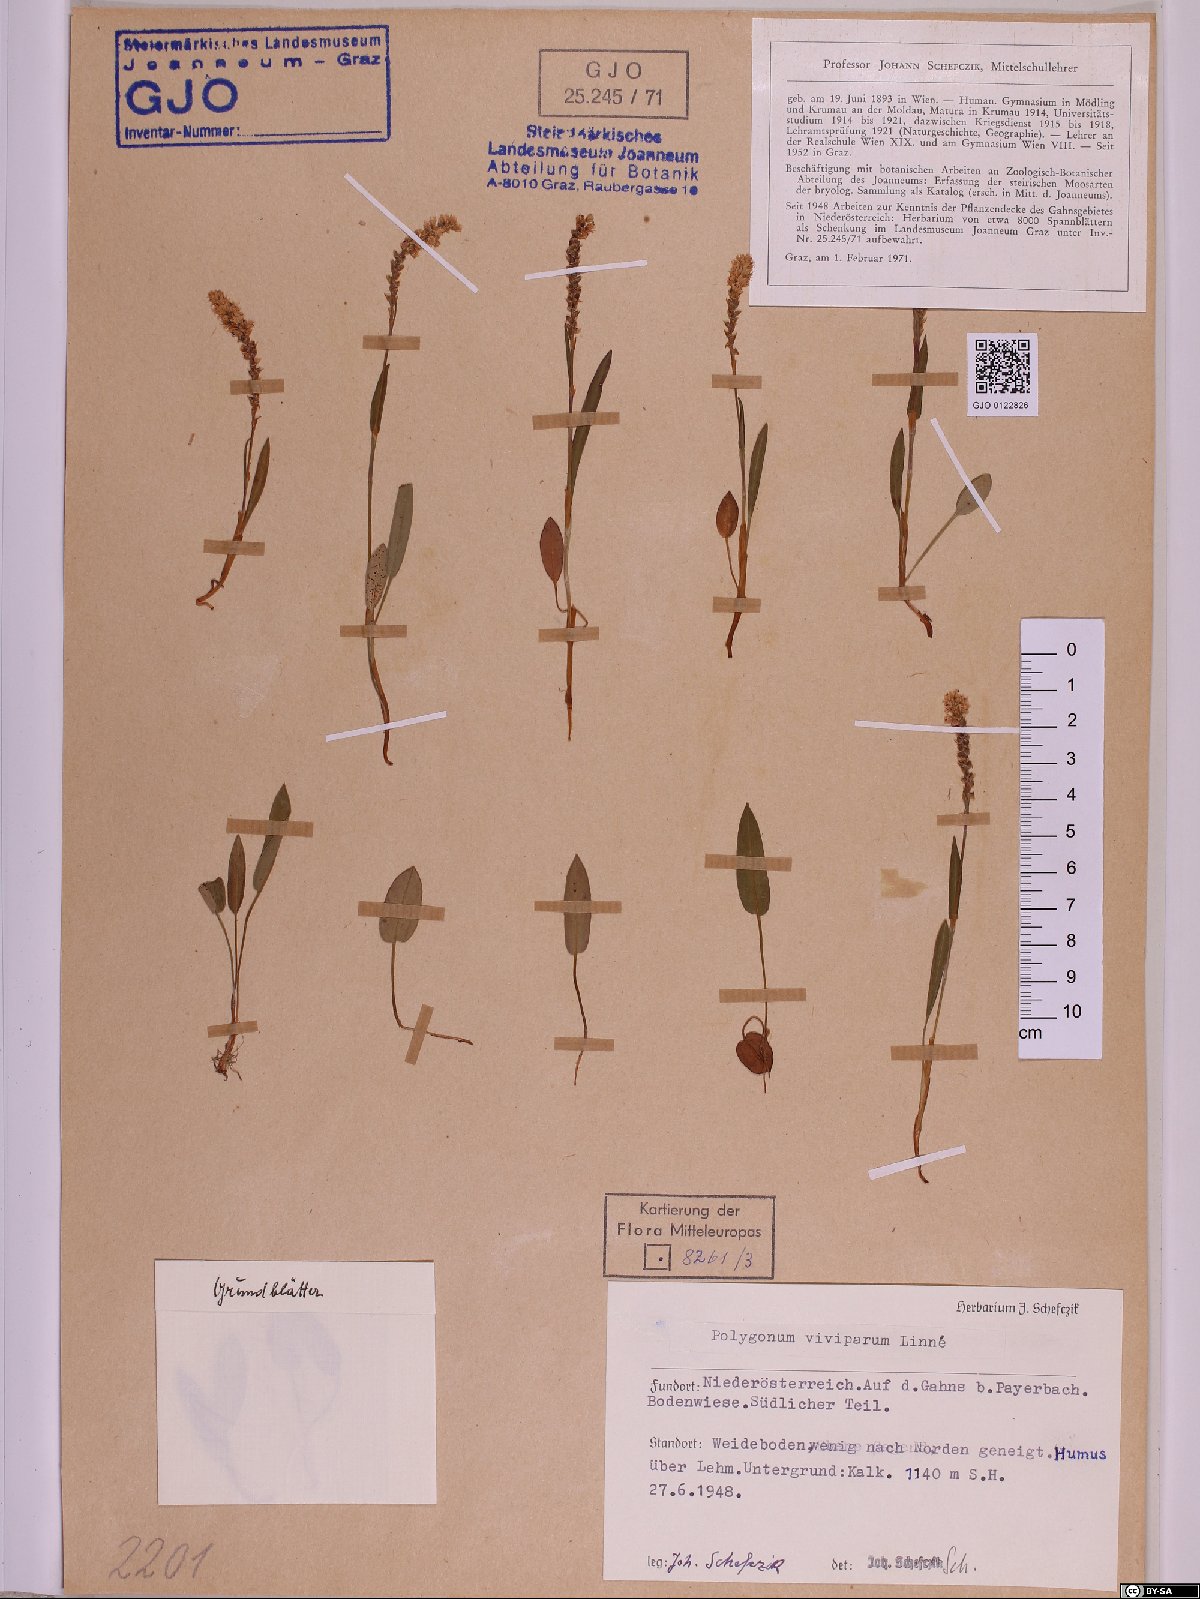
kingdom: Plantae
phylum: Tracheophyta
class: Magnoliopsida
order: Caryophyllales
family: Polygonaceae
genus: Bistorta
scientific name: Bistorta vivipara
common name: Alpine bistort
